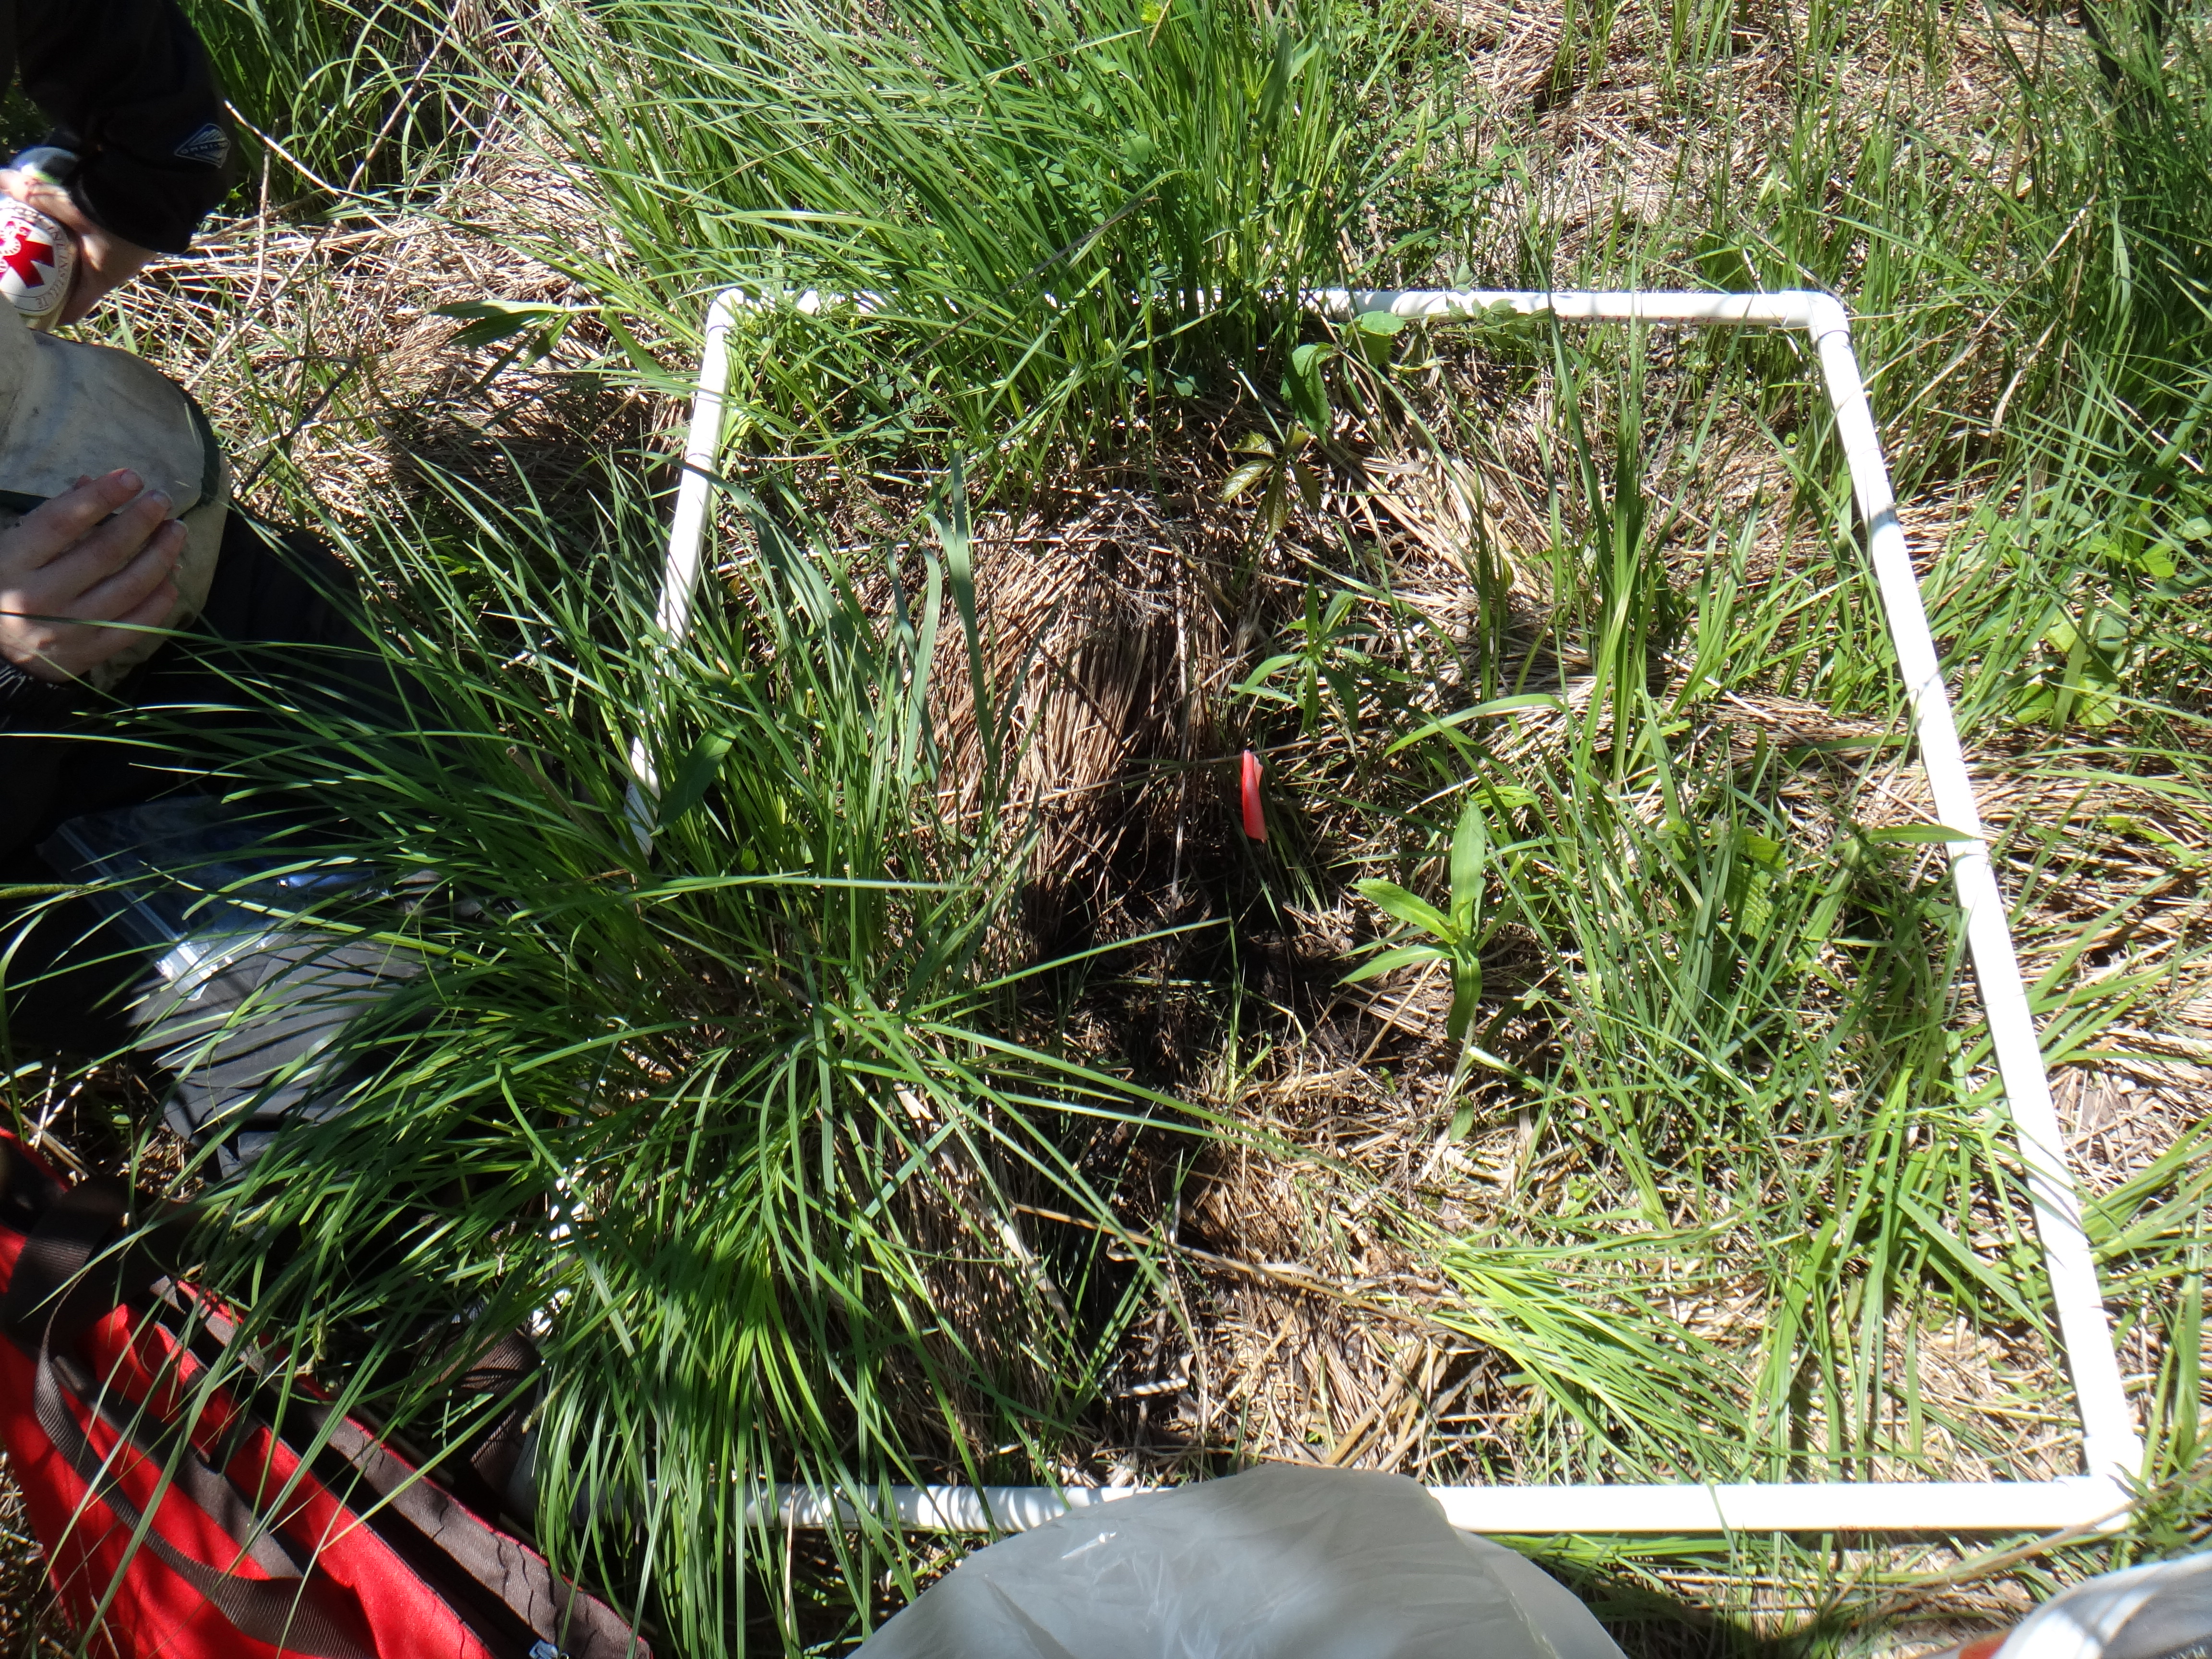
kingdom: Plantae
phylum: Tracheophyta
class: Magnoliopsida
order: Asterales
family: Asteraceae
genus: Symphyotrichum
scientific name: Symphyotrichum puniceum
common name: Bog aster
